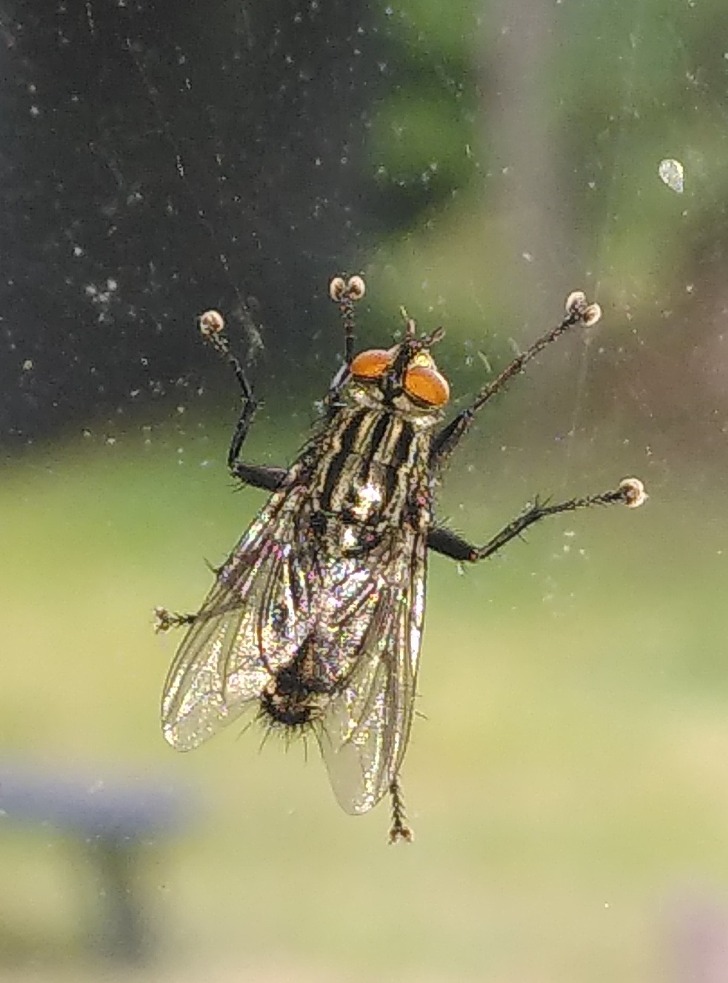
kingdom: Animalia
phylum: Arthropoda
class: Insecta
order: Diptera
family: Sarcophagidae
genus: Sarcophaga
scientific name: Sarcophaga
